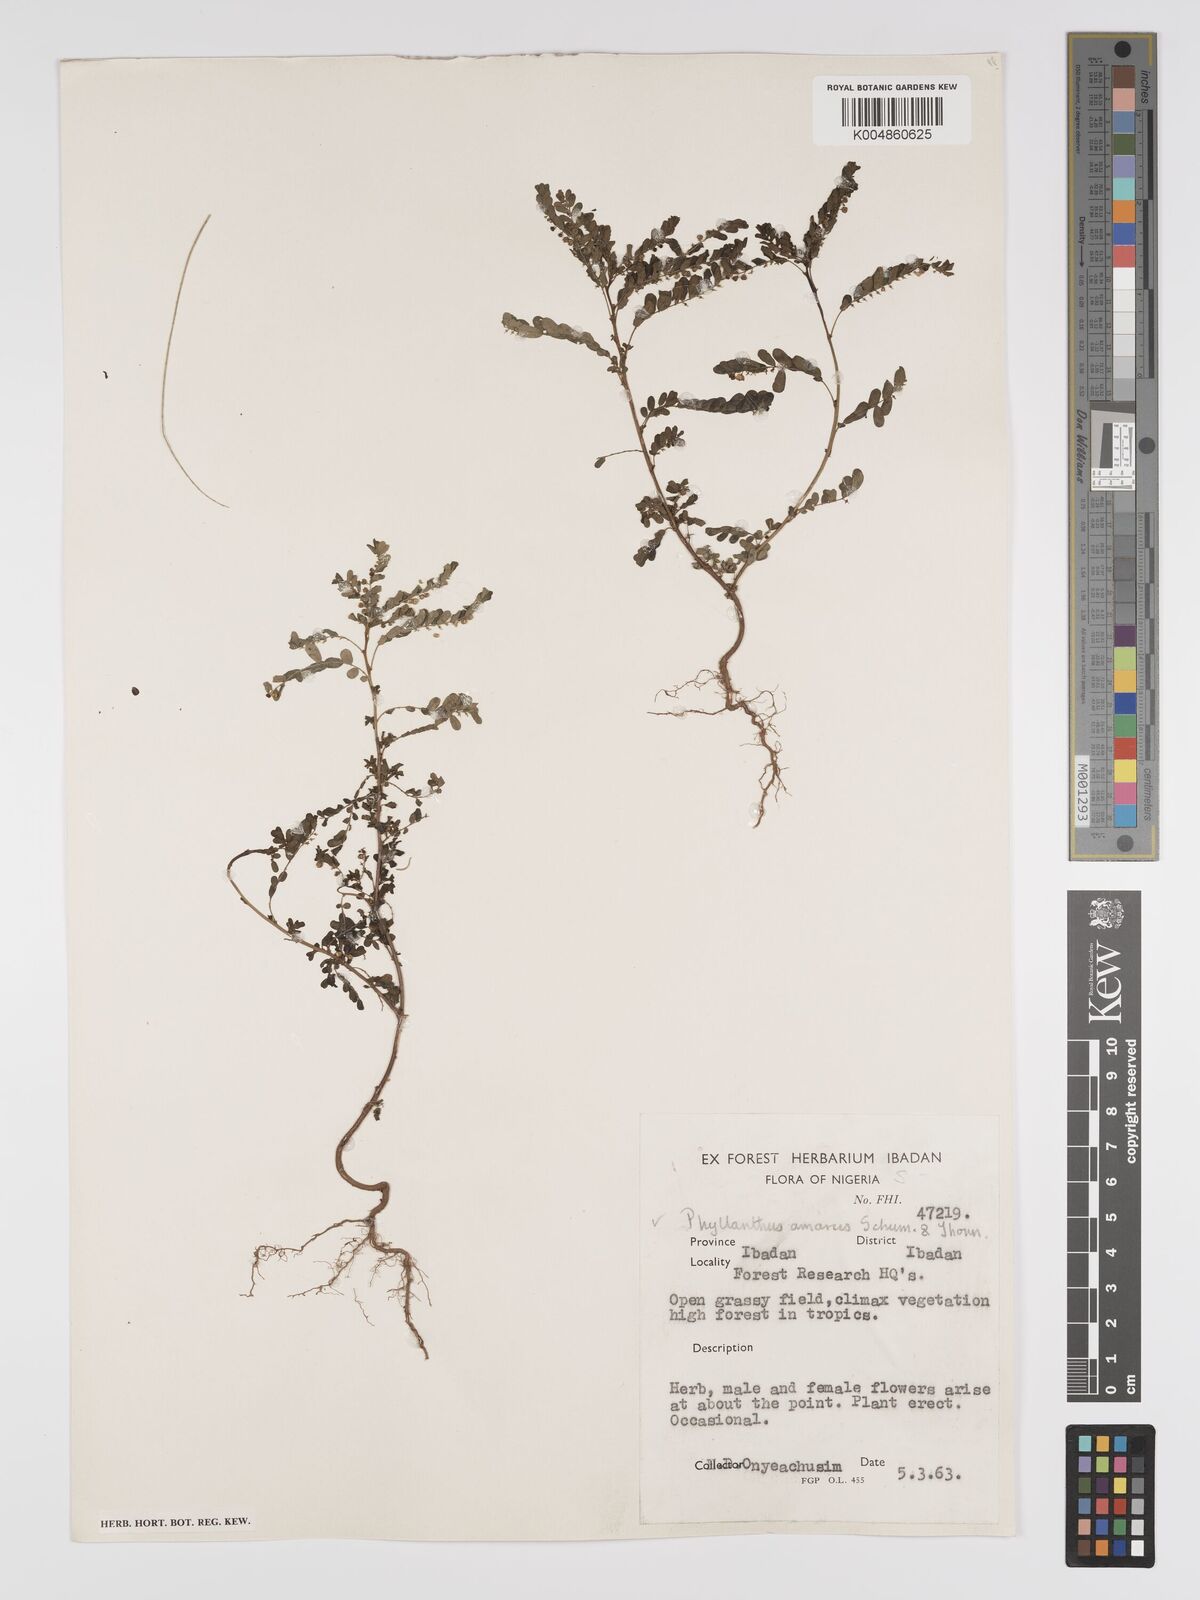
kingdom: Plantae
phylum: Tracheophyta
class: Magnoliopsida
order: Malpighiales
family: Phyllanthaceae
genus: Phyllanthus
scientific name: Phyllanthus amarus
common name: Carry me seed
